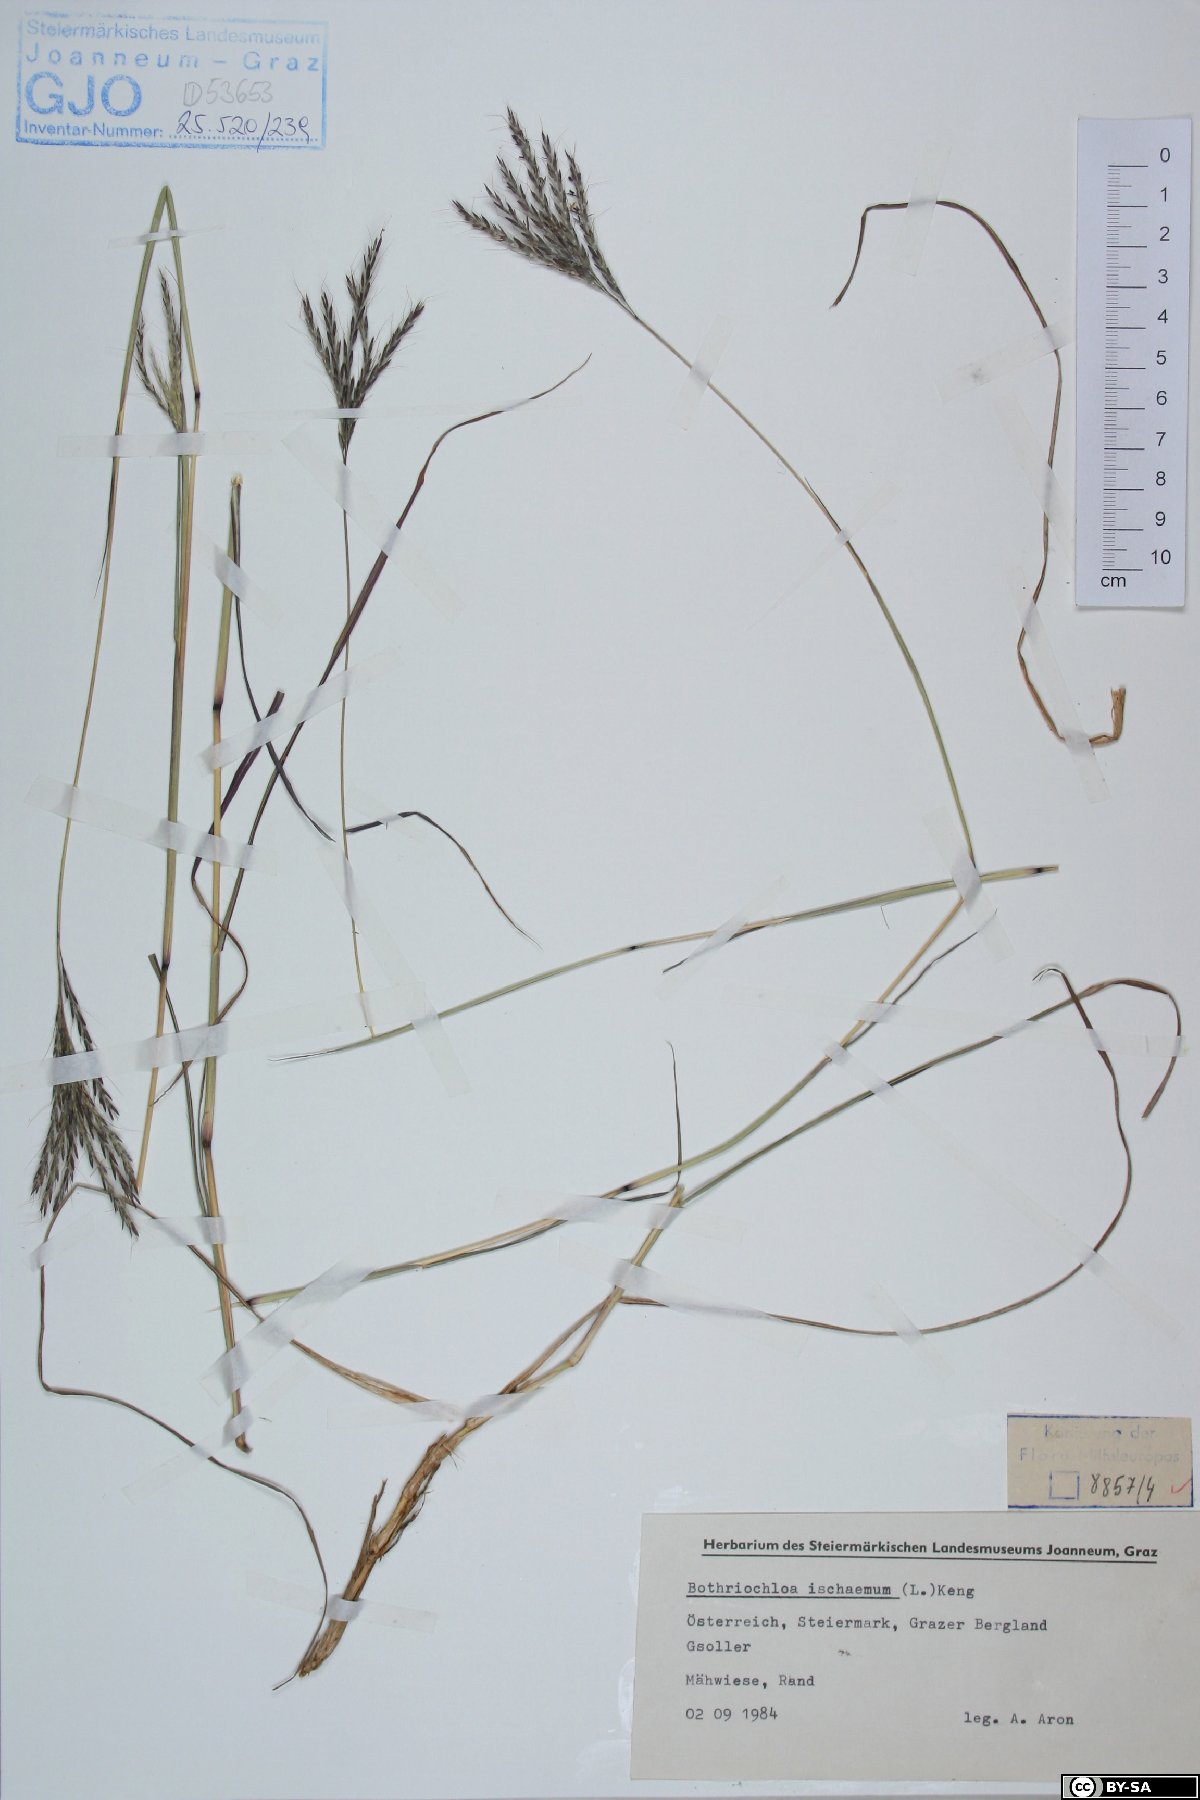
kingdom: Plantae
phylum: Tracheophyta
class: Liliopsida
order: Poales
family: Poaceae
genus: Bothriochloa
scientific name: Bothriochloa ischaemum
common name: Yellow bluestem
